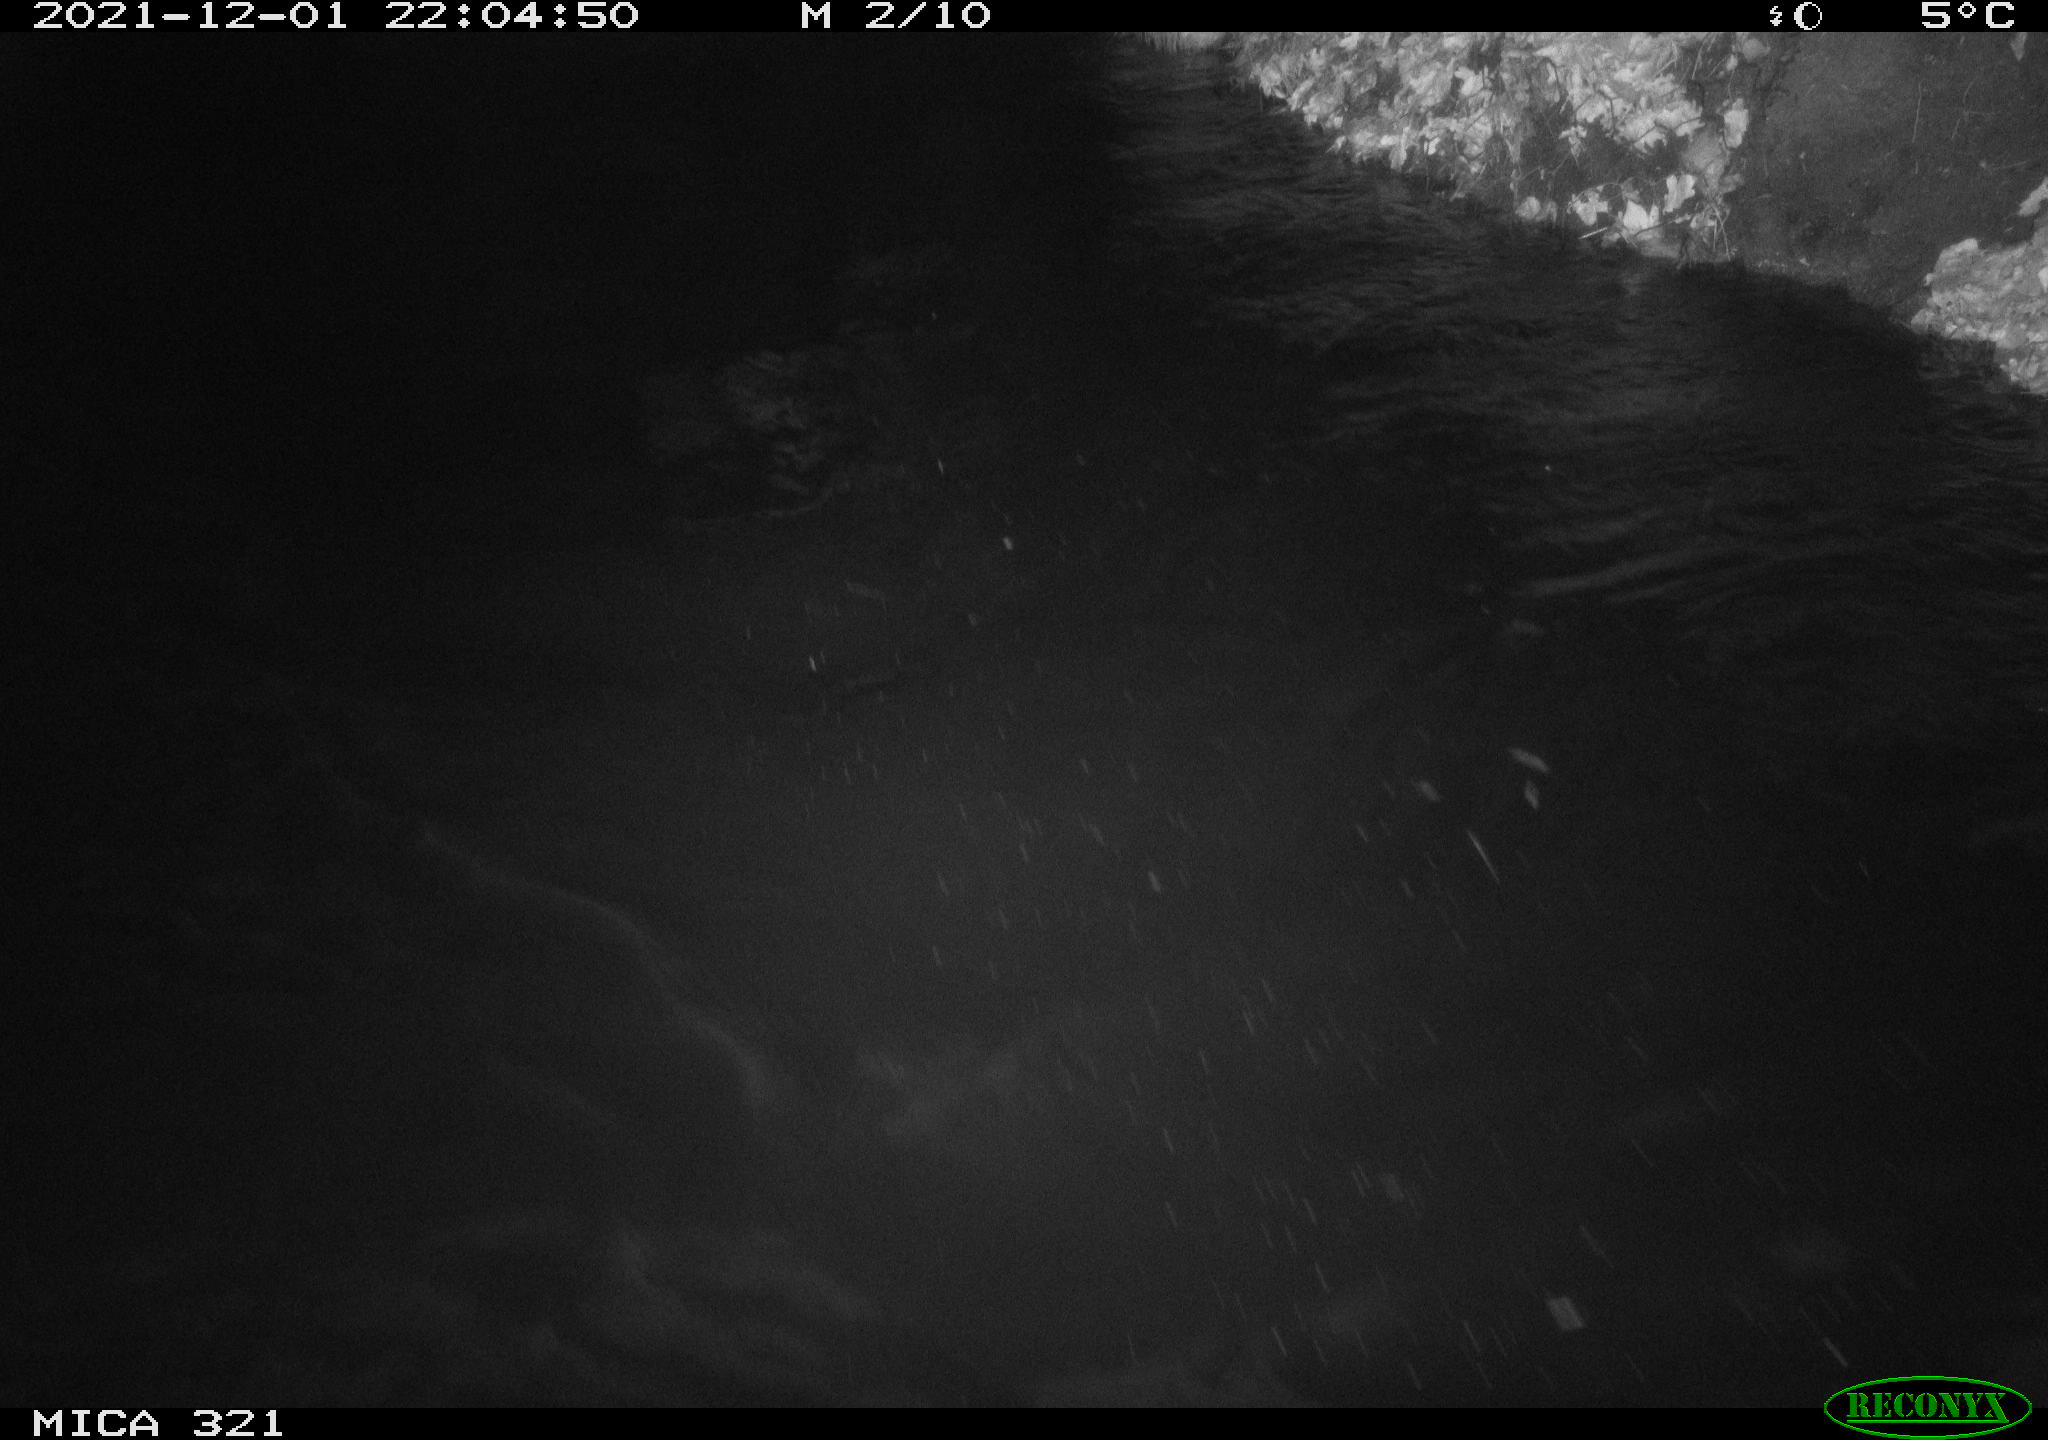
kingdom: Animalia
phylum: Chordata
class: Aves
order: Anseriformes
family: Anatidae
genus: Anas
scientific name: Anas platyrhynchos
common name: Mallard
